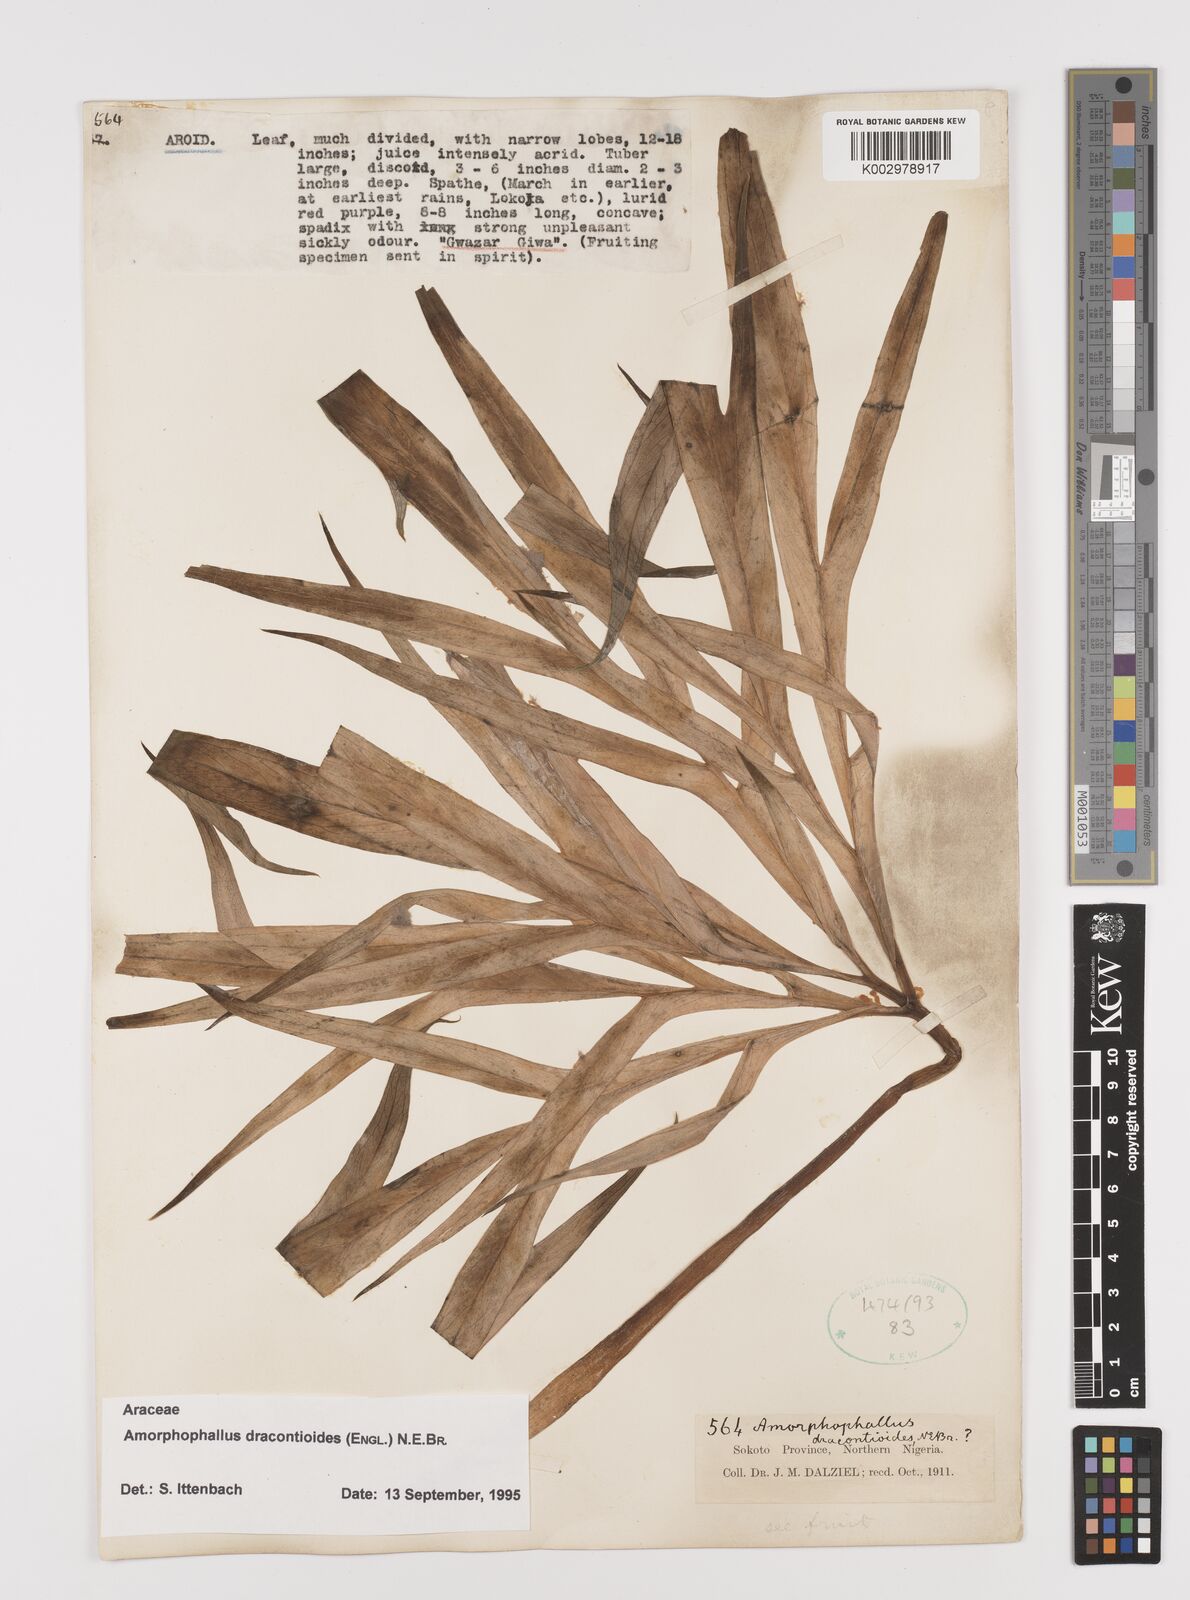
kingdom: Plantae
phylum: Tracheophyta
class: Liliopsida
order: Alismatales
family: Araceae
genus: Amorphophallus
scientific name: Amorphophallus dracontioides
